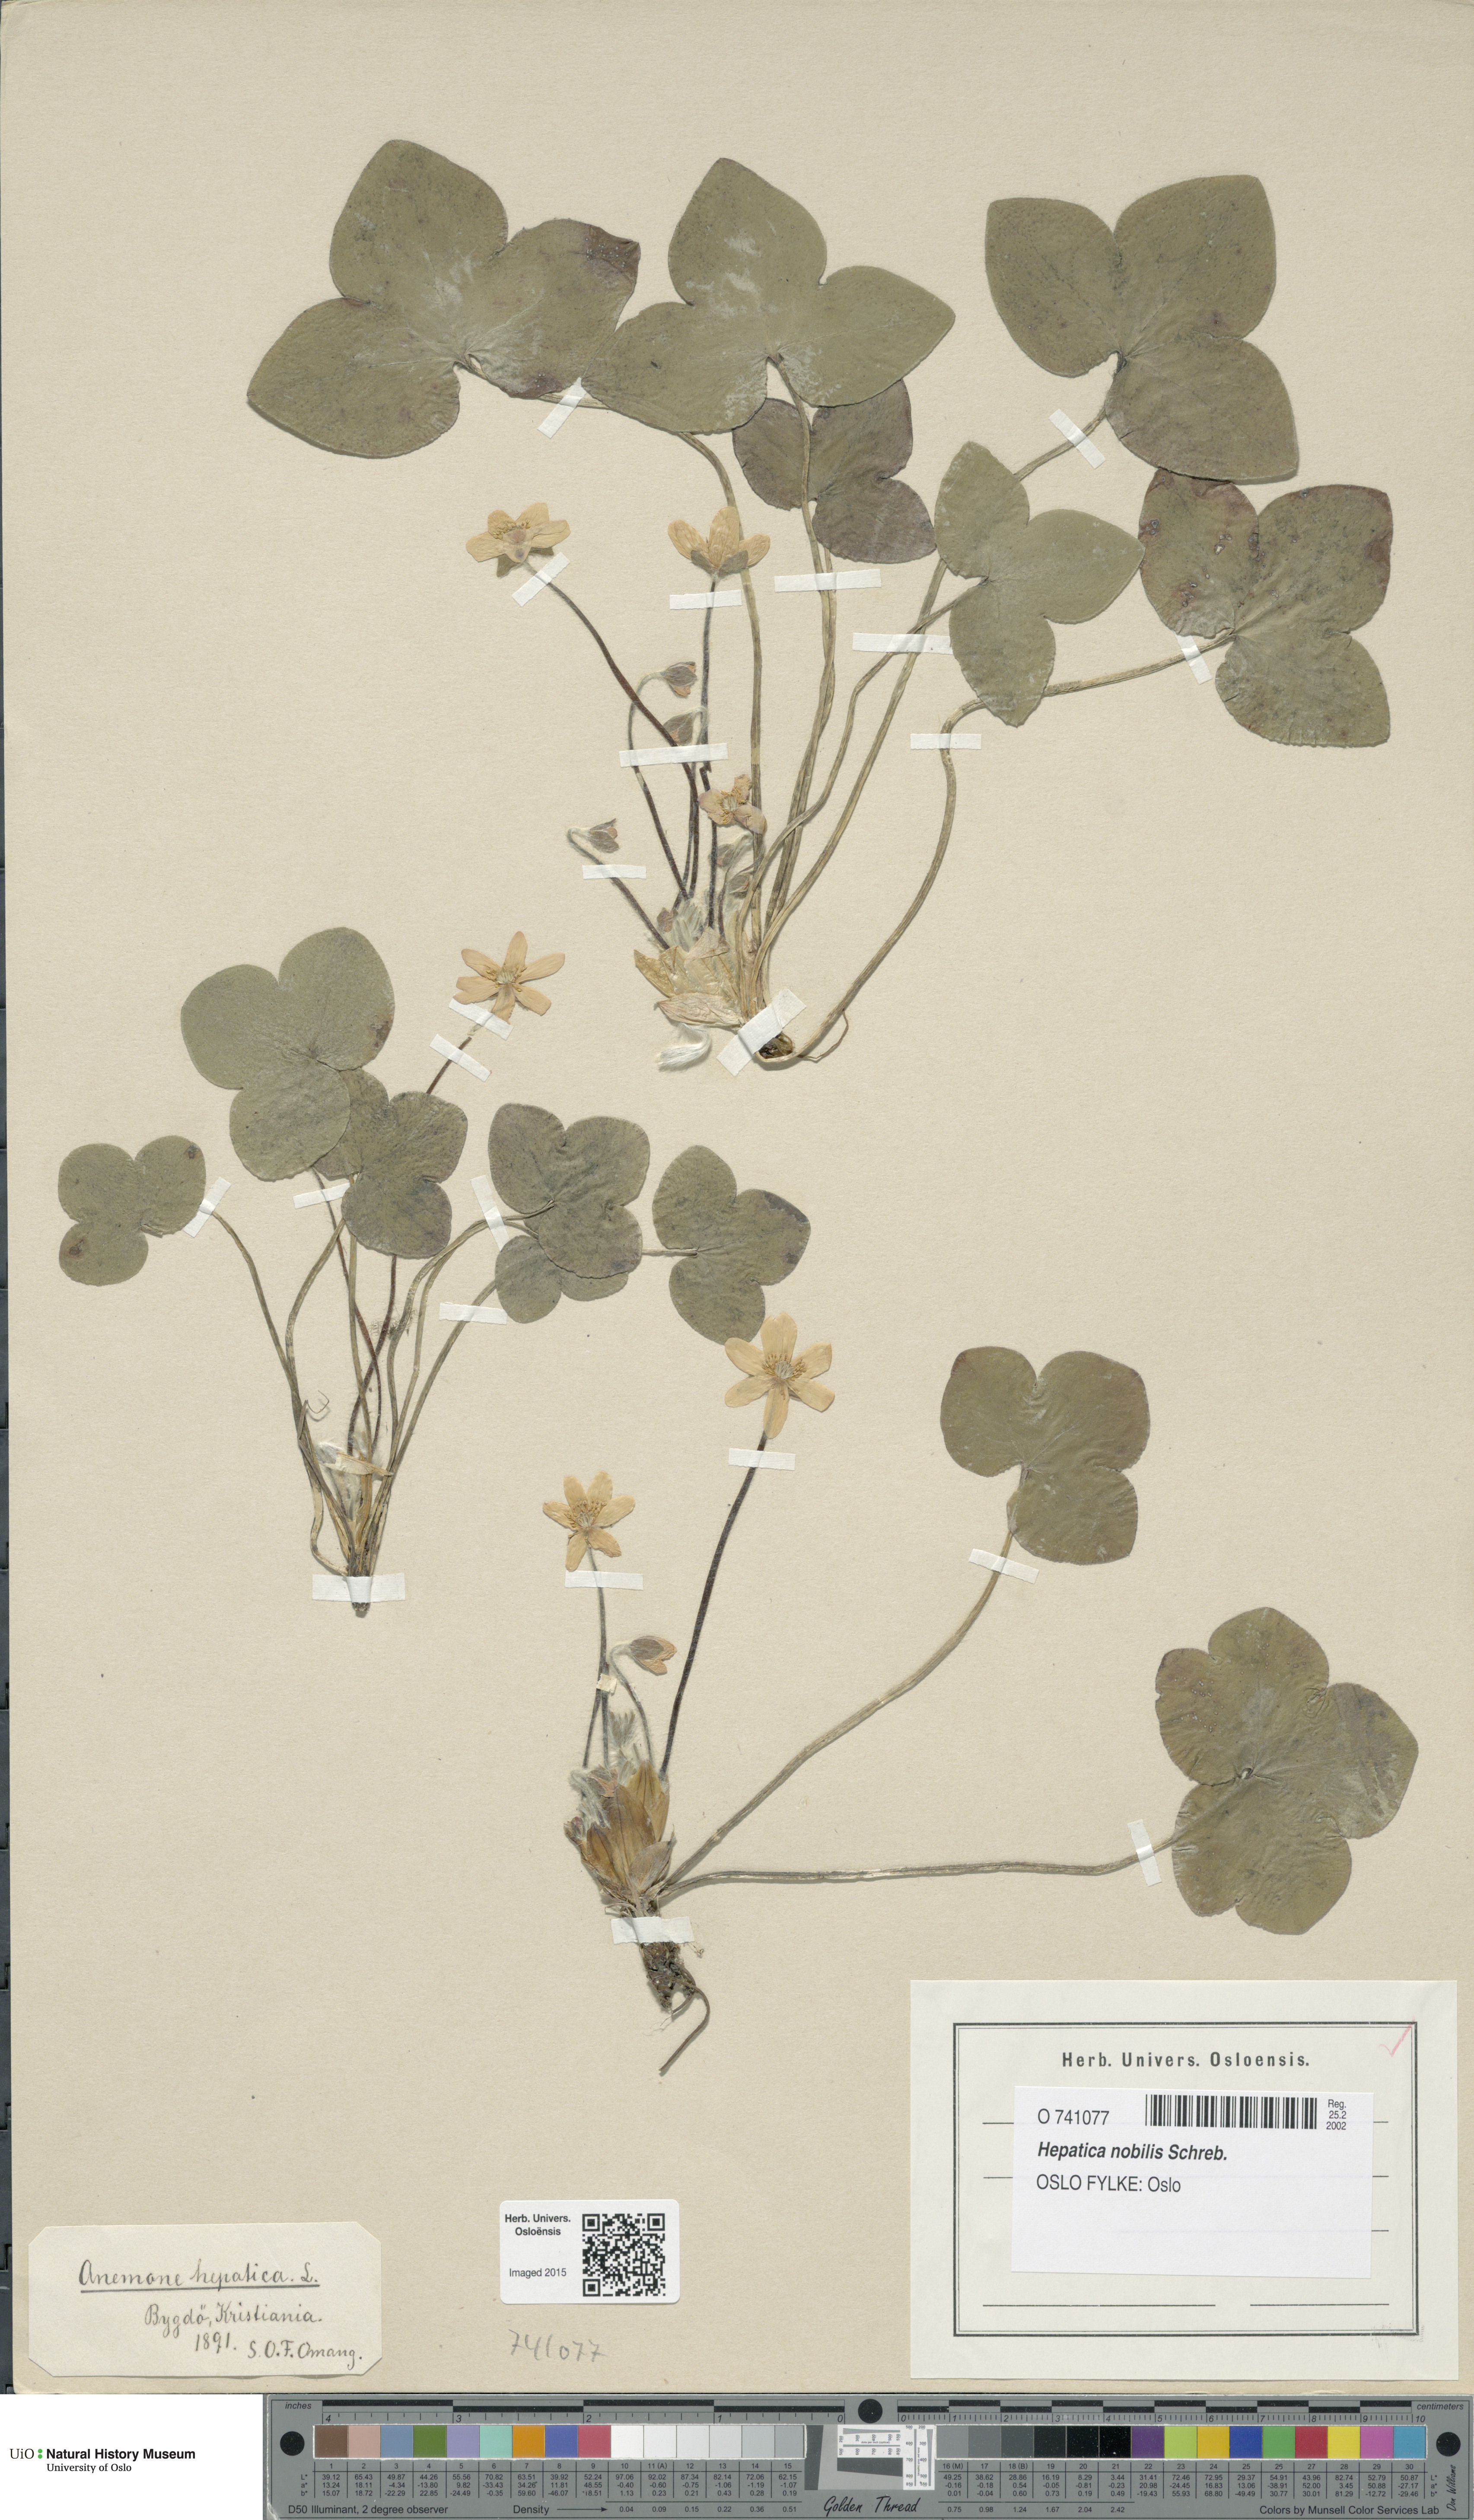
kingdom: Plantae
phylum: Tracheophyta
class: Magnoliopsida
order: Ranunculales
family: Ranunculaceae
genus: Hepatica
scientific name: Hepatica nobilis
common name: Liverleaf
